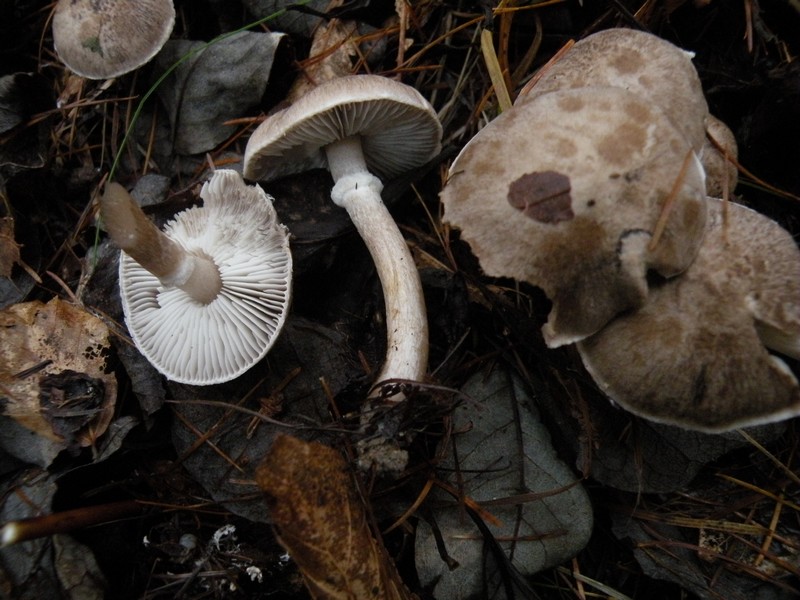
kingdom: Fungi
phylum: Basidiomycota
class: Agaricomycetes
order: Agaricales
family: Tricholomataceae
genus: Tricholoma
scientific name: Tricholoma cingulatum
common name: ring-ridderhat
